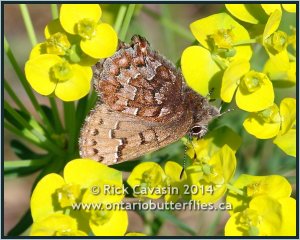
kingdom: Animalia
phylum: Arthropoda
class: Insecta
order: Lepidoptera
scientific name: Lepidoptera
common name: Butterflies
